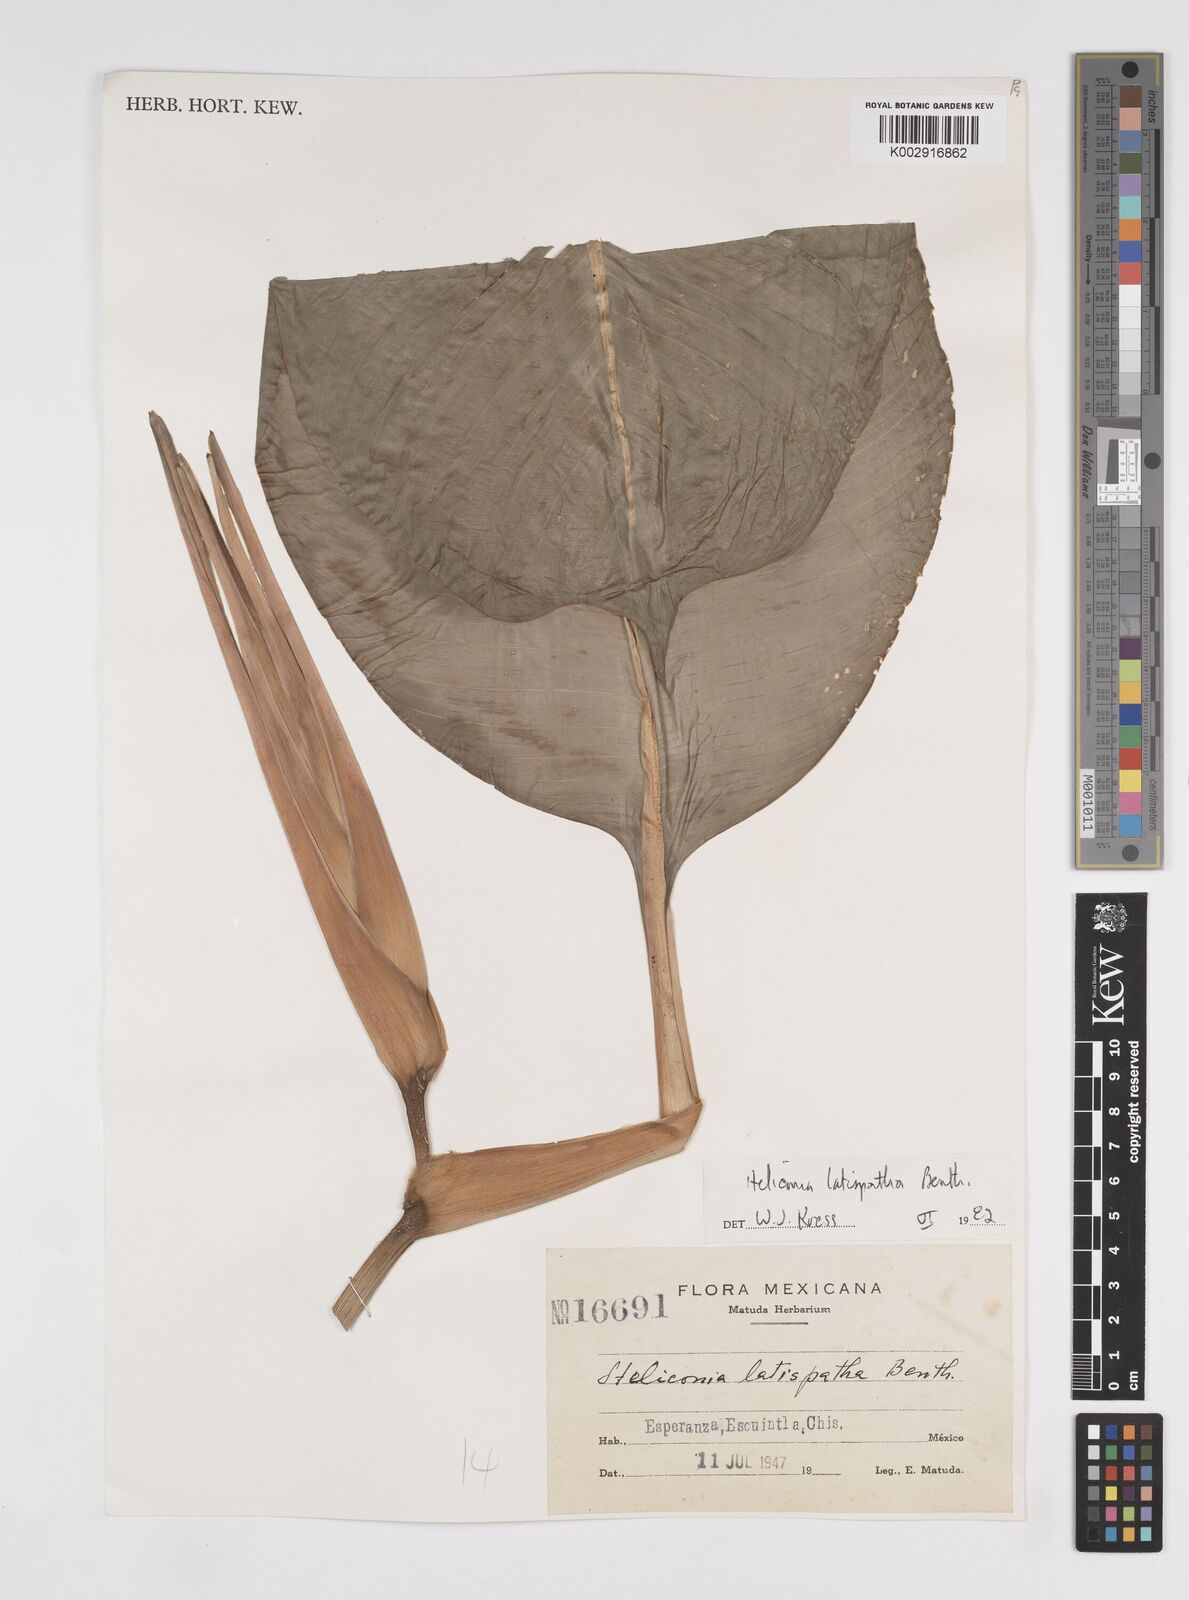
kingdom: Plantae
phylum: Tracheophyta
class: Liliopsida
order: Zingiberales
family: Heliconiaceae
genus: Heliconia
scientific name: Heliconia latispatha
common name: Expanded lobsterclaw
